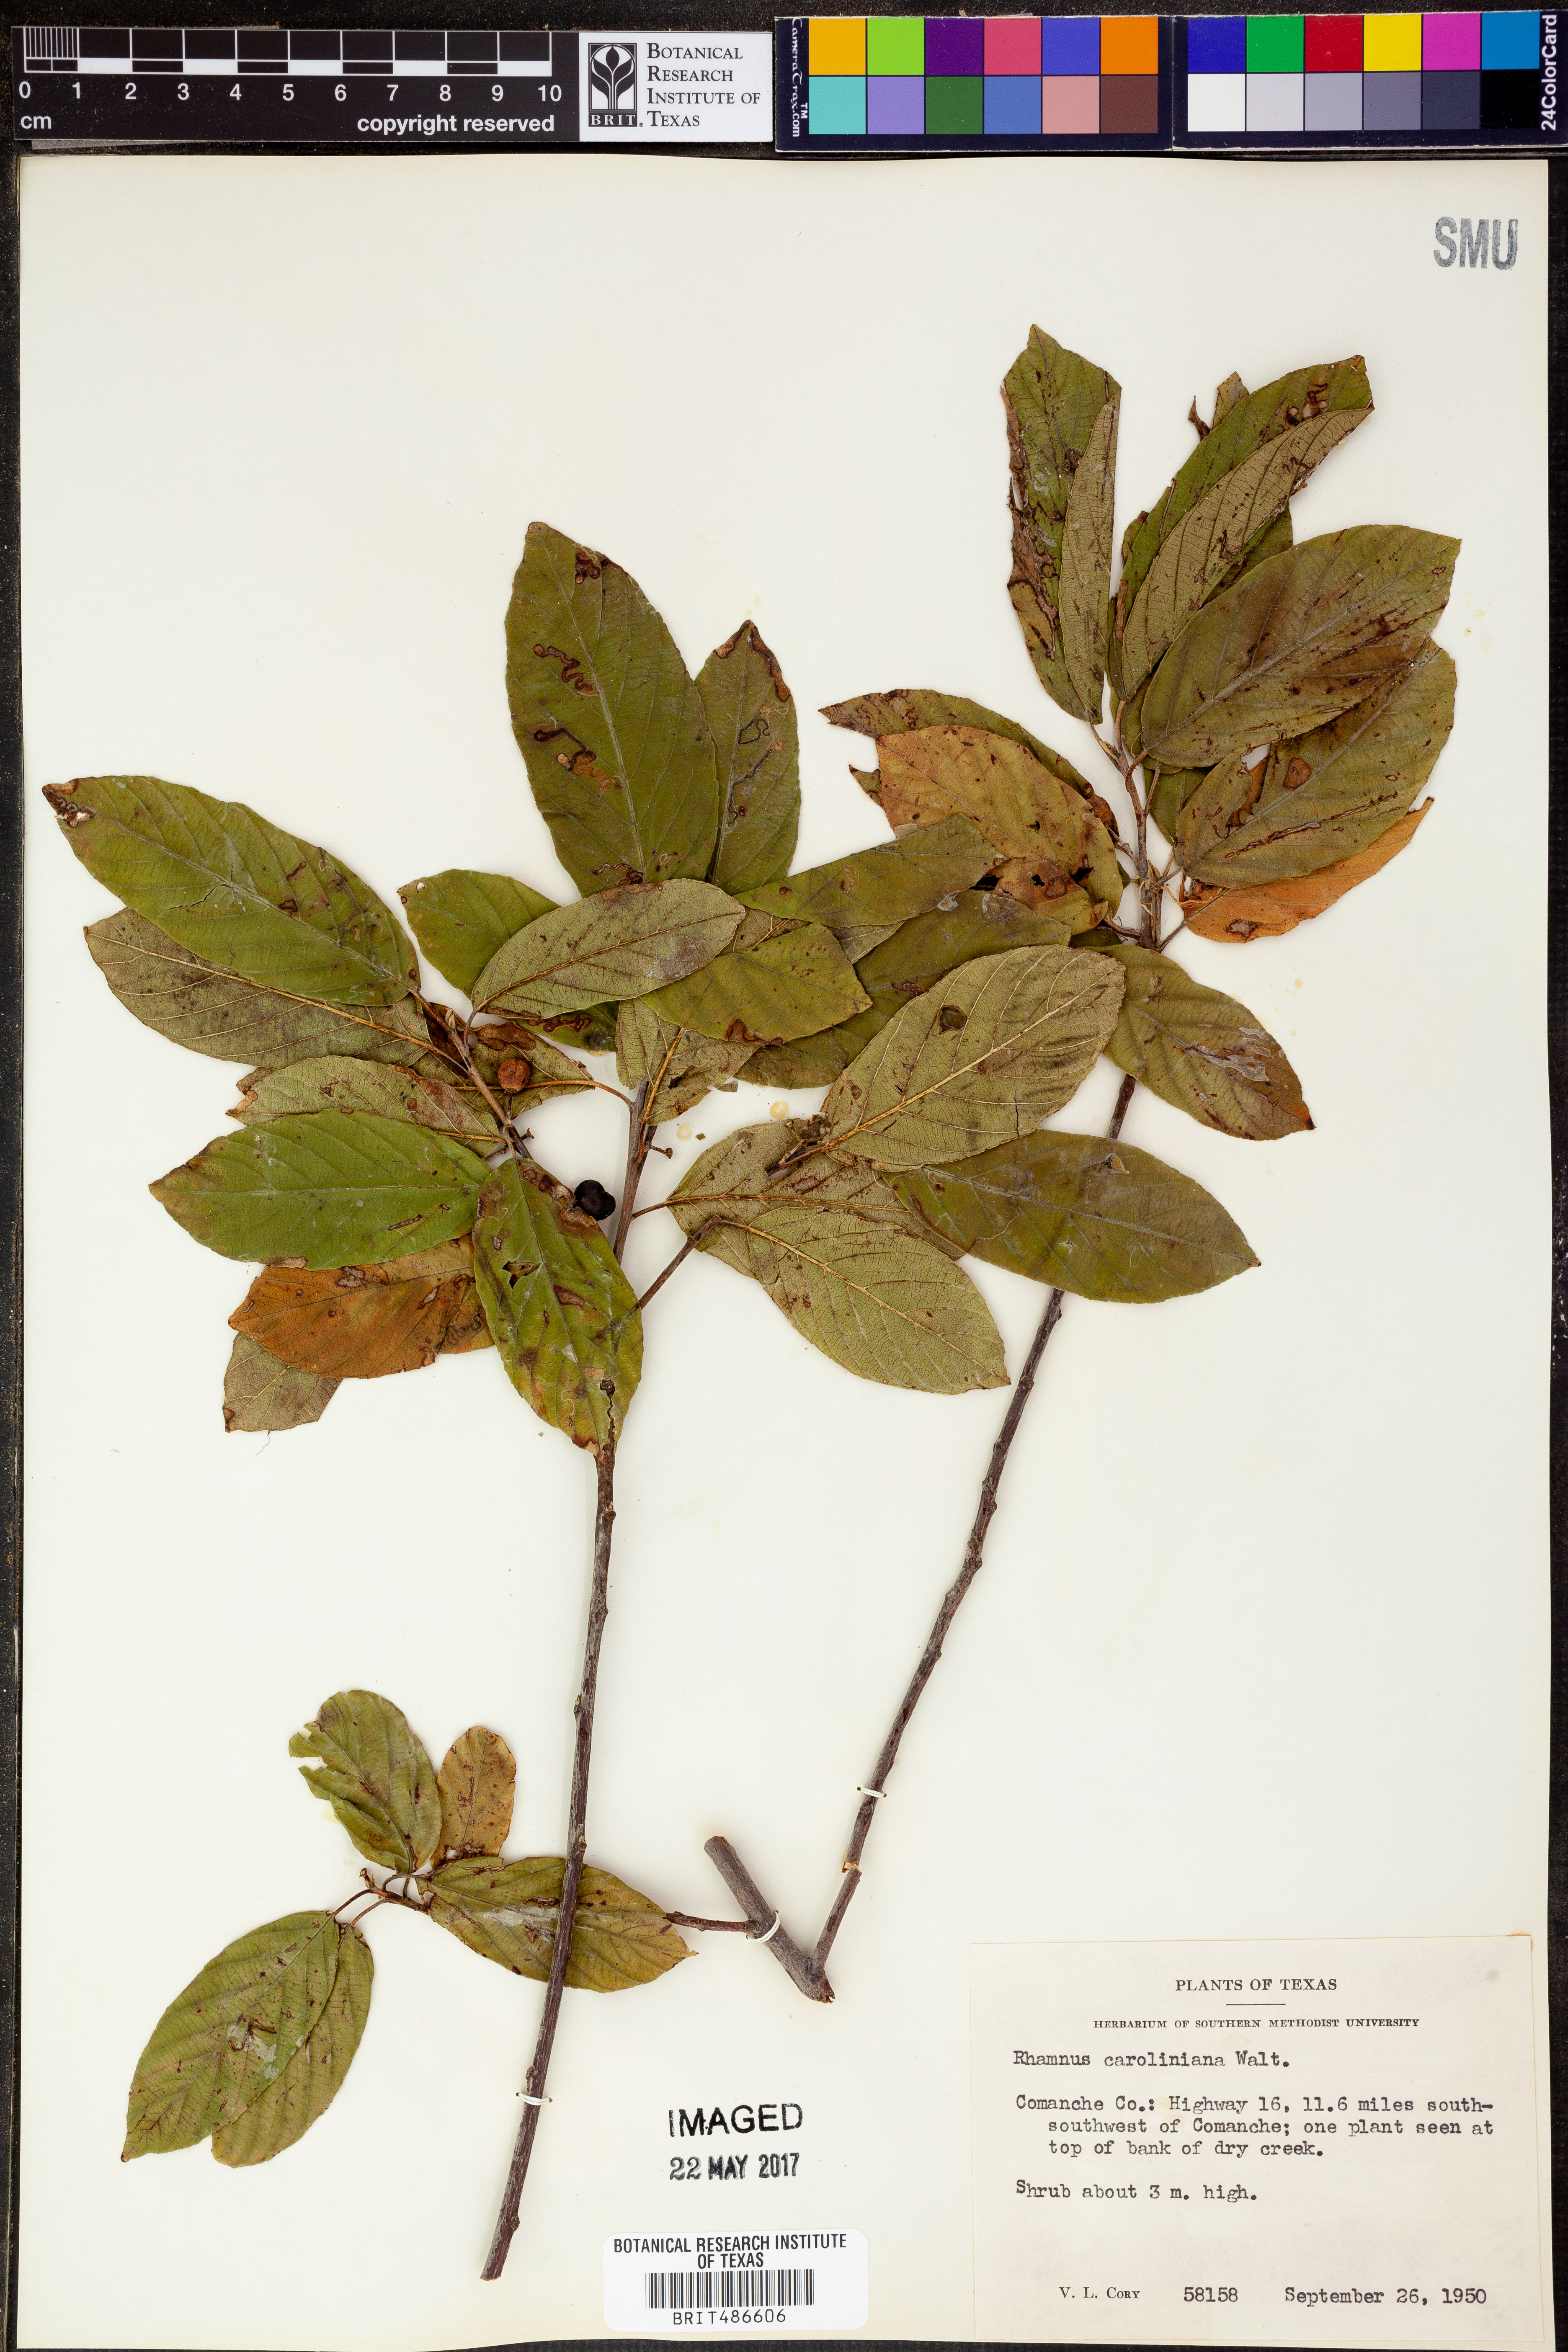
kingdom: Plantae
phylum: Tracheophyta
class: Magnoliopsida
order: Rosales
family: Rhamnaceae
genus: Frangula
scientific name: Frangula caroliniana
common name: Carolina buckthorn
